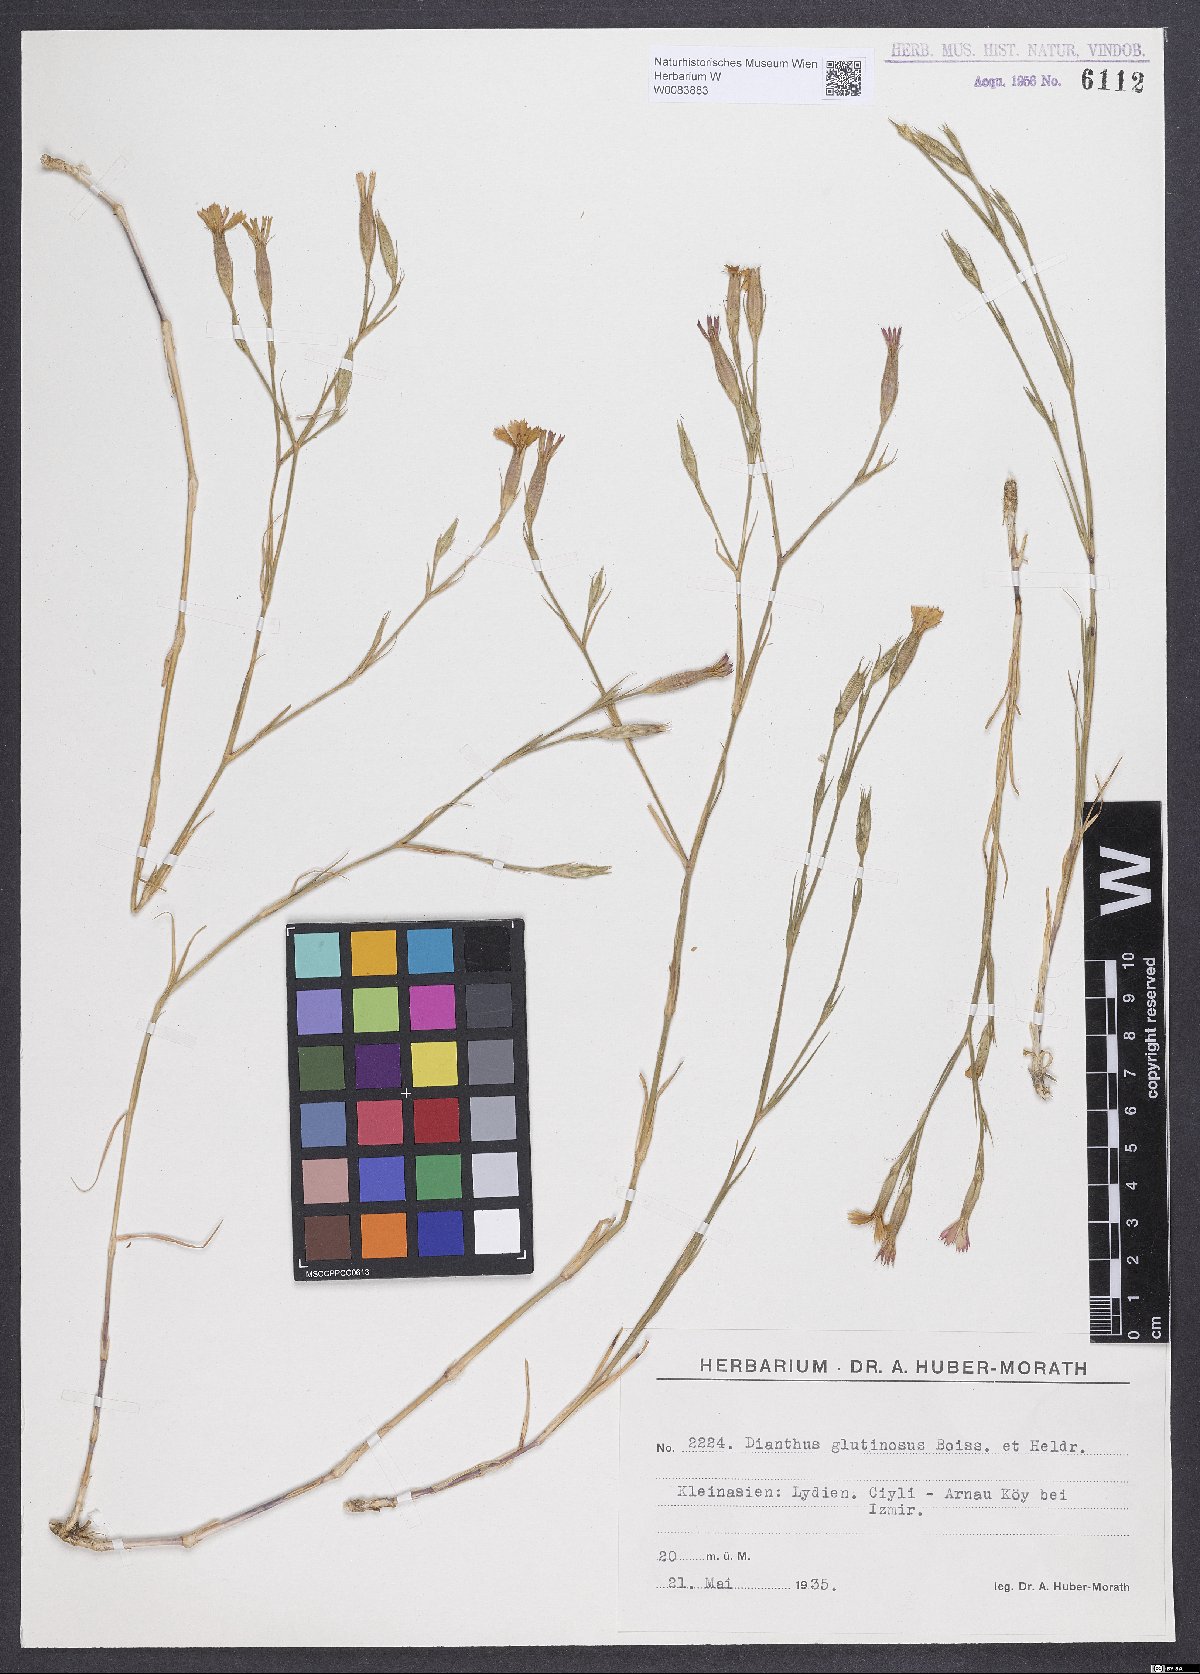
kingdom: Plantae
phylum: Tracheophyta
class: Magnoliopsida
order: Caryophyllales
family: Caryophyllaceae
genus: Dianthus
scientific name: Dianthus glutinosus
